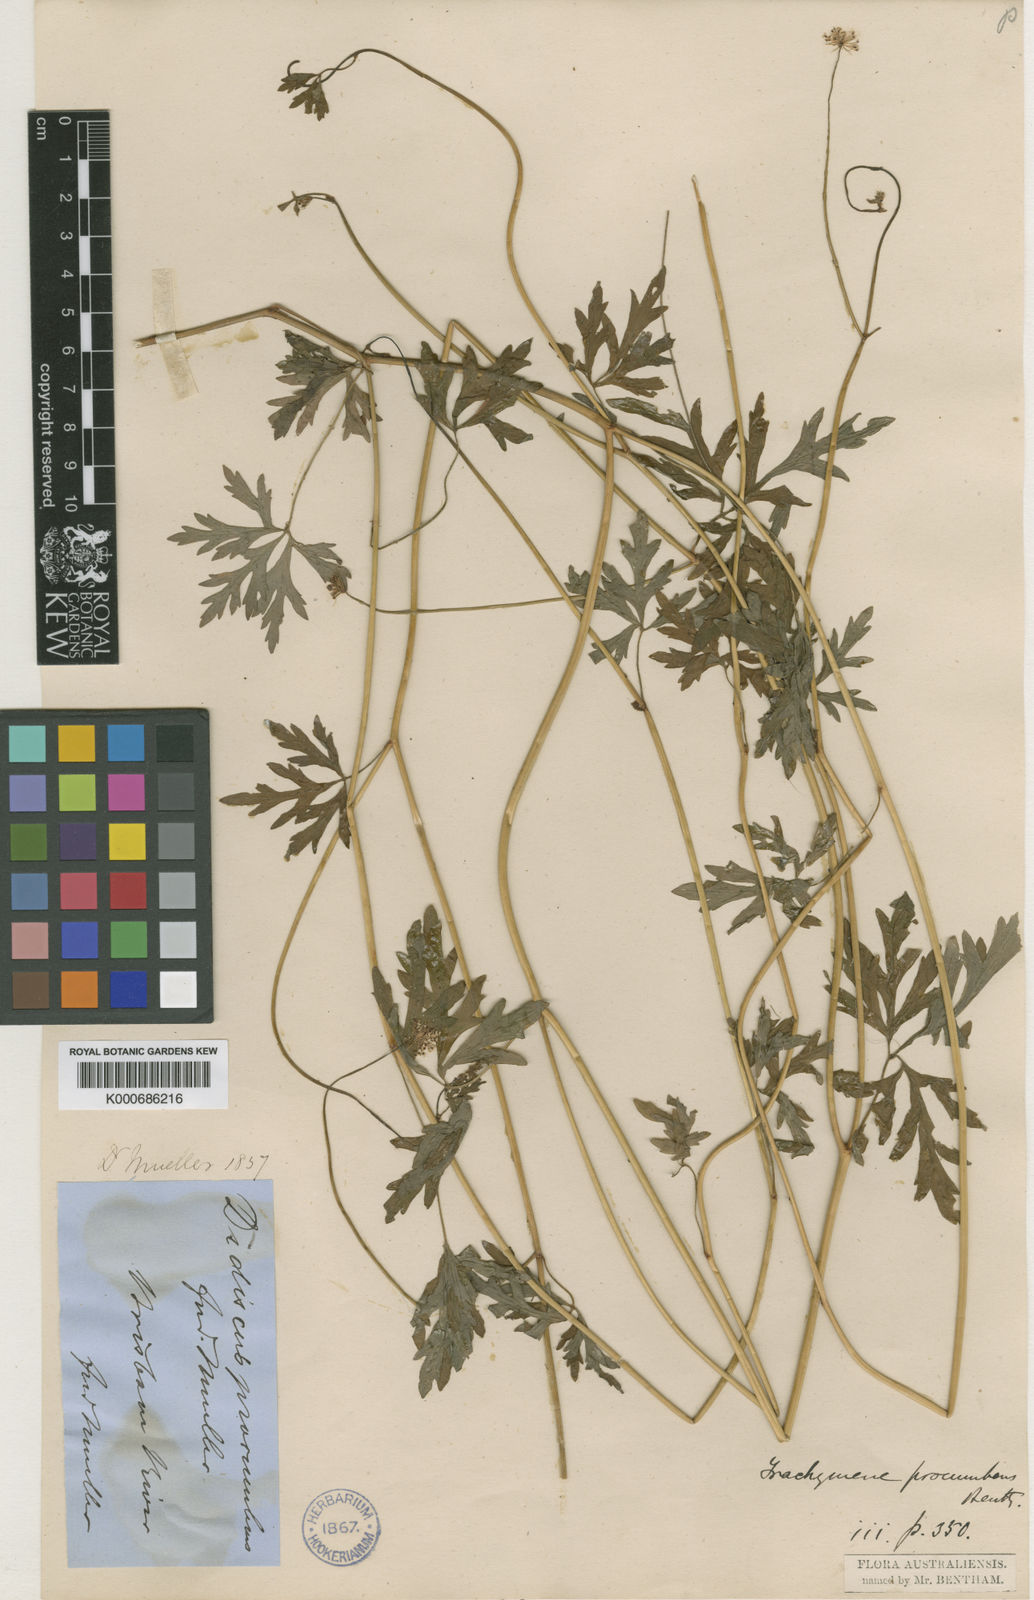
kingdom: Plantae
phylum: Tracheophyta
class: Magnoliopsida
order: Apiales
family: Araliaceae
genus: Trachymene
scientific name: Trachymene procumbens
